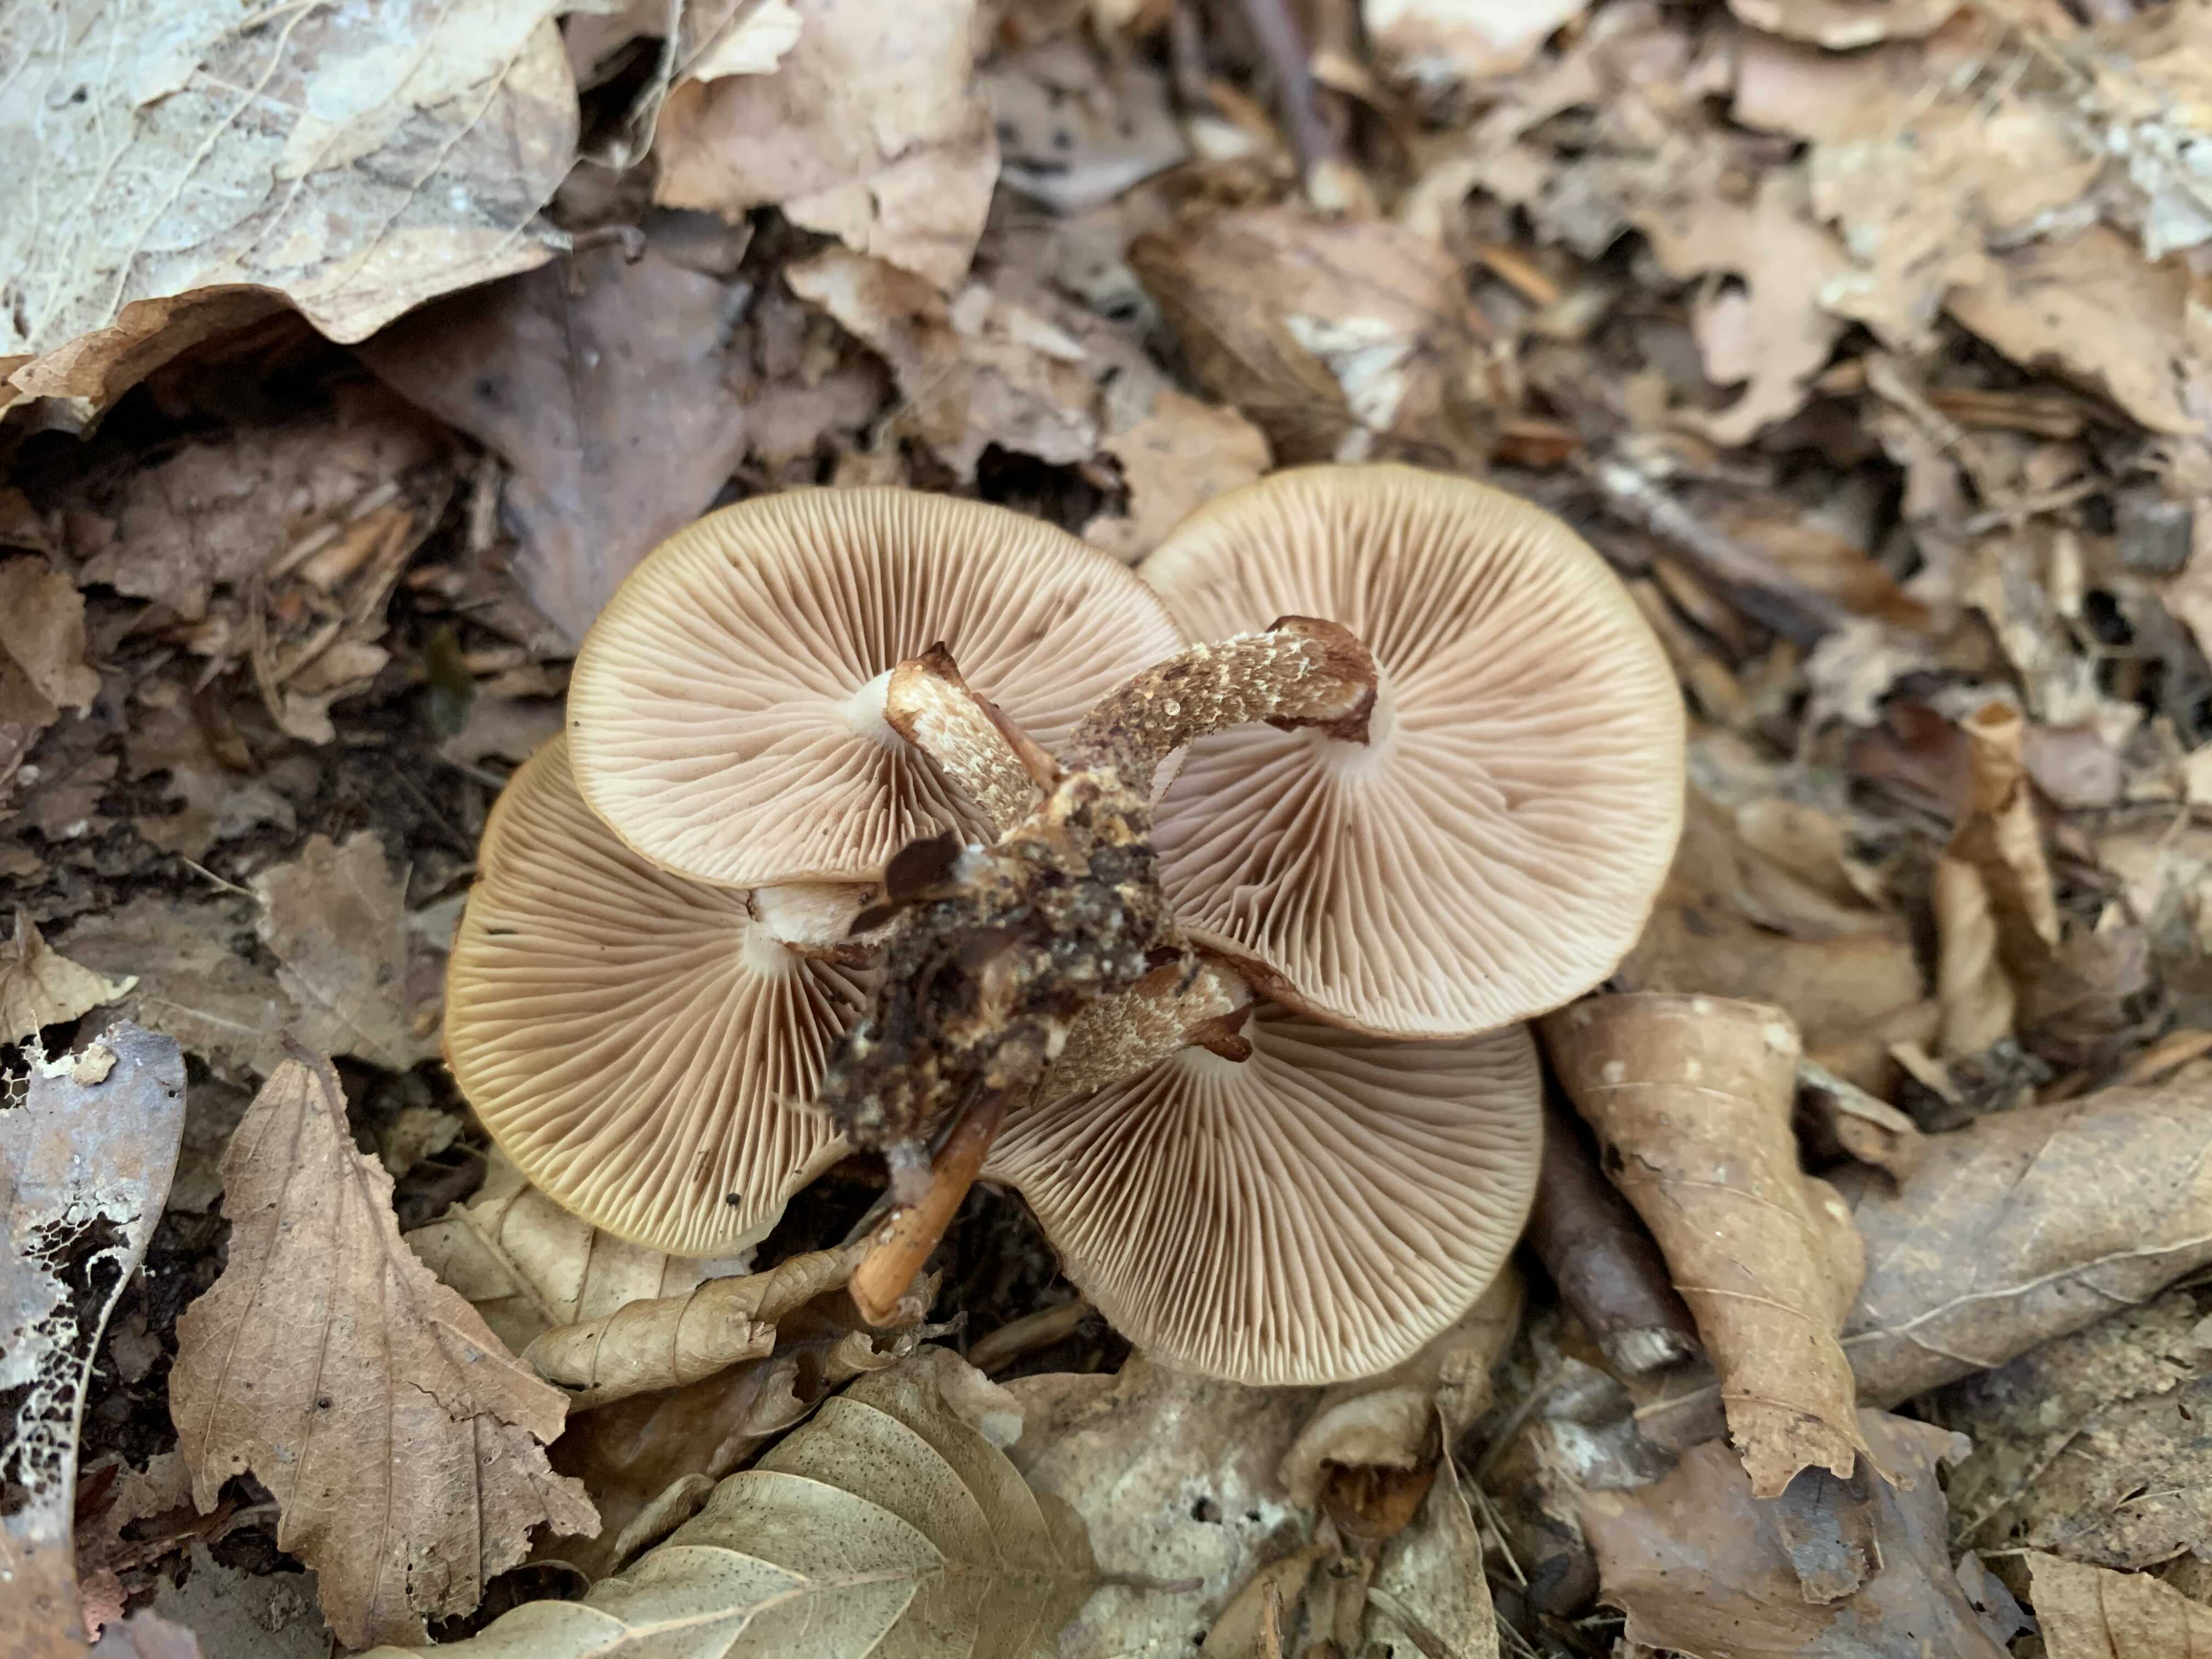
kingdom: Fungi
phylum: Basidiomycota
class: Agaricomycetes
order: Agaricales
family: Strophariaceae
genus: Kuehneromyces
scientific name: Kuehneromyces mutabilis
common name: foranderlig skælhat
